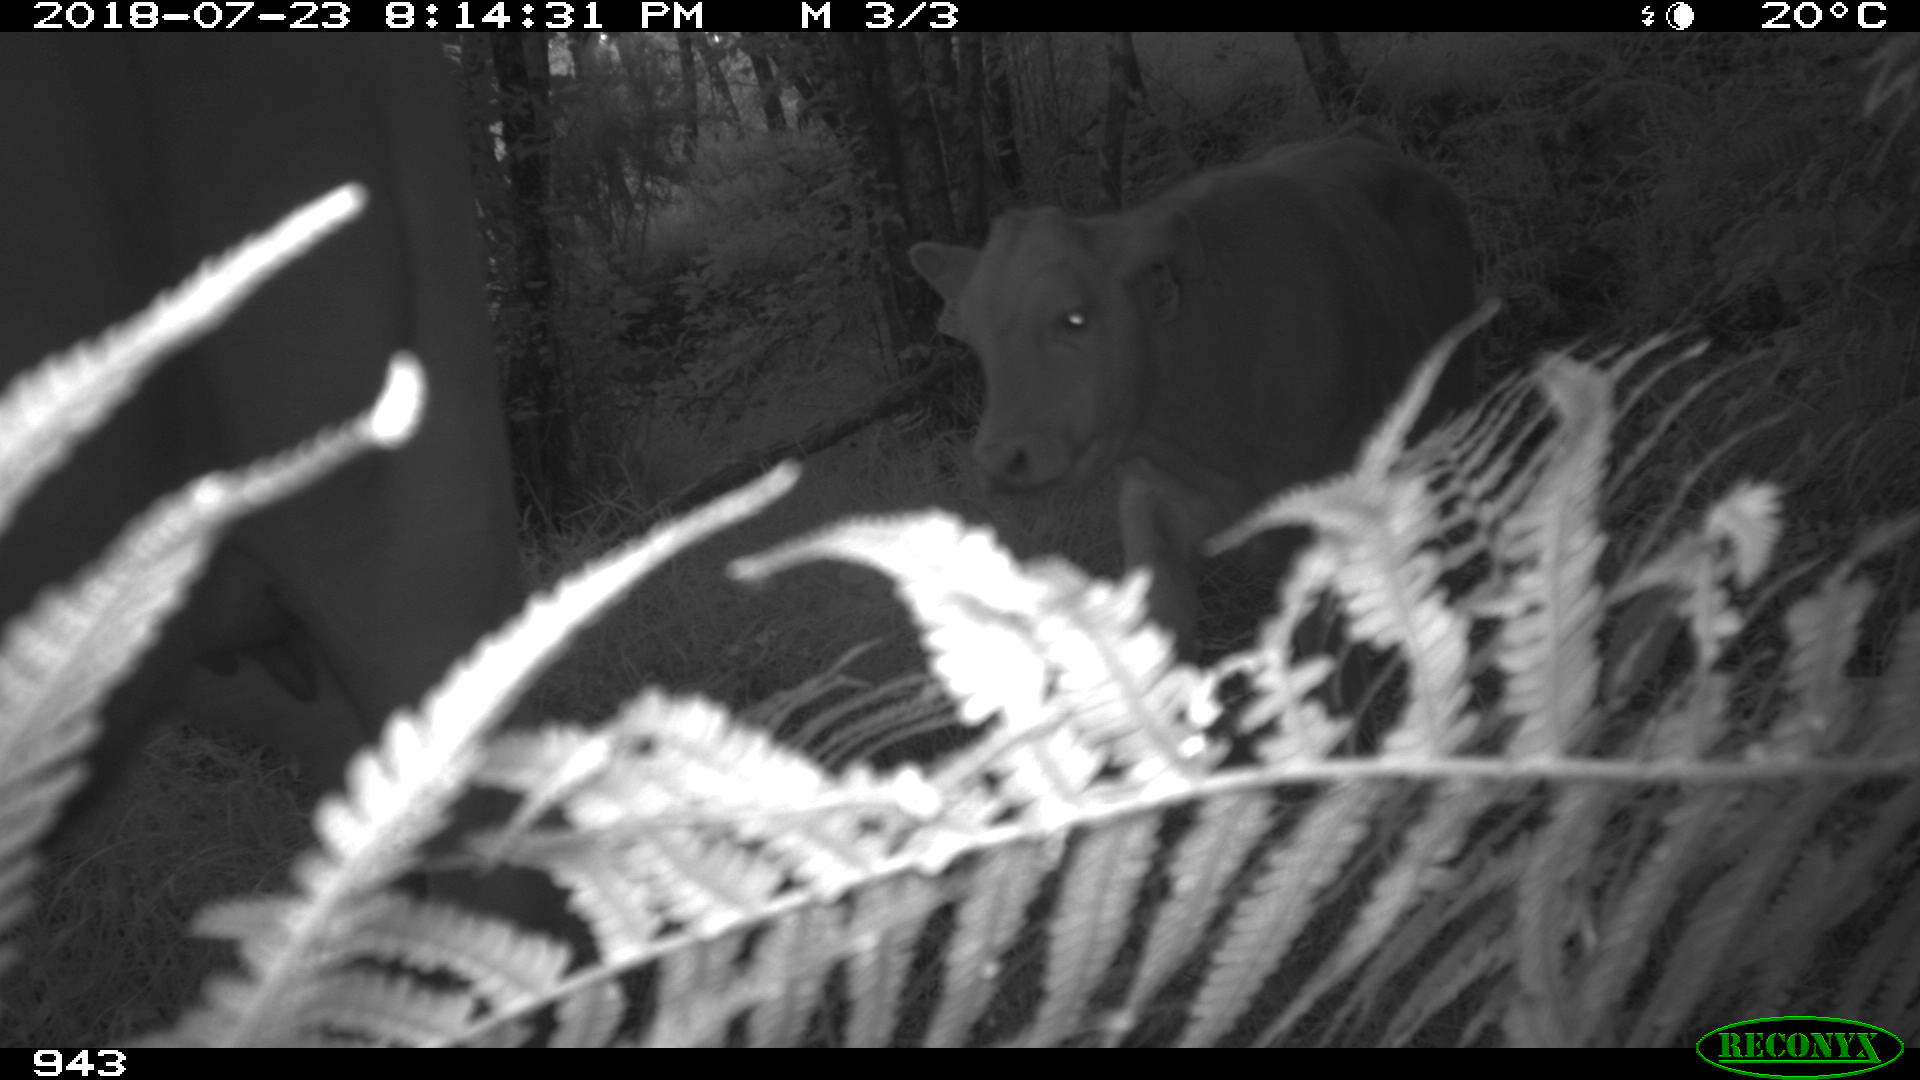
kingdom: Animalia
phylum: Chordata
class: Mammalia
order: Artiodactyla
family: Bovidae
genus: Bos
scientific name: Bos taurus
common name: Domesticated cattle
